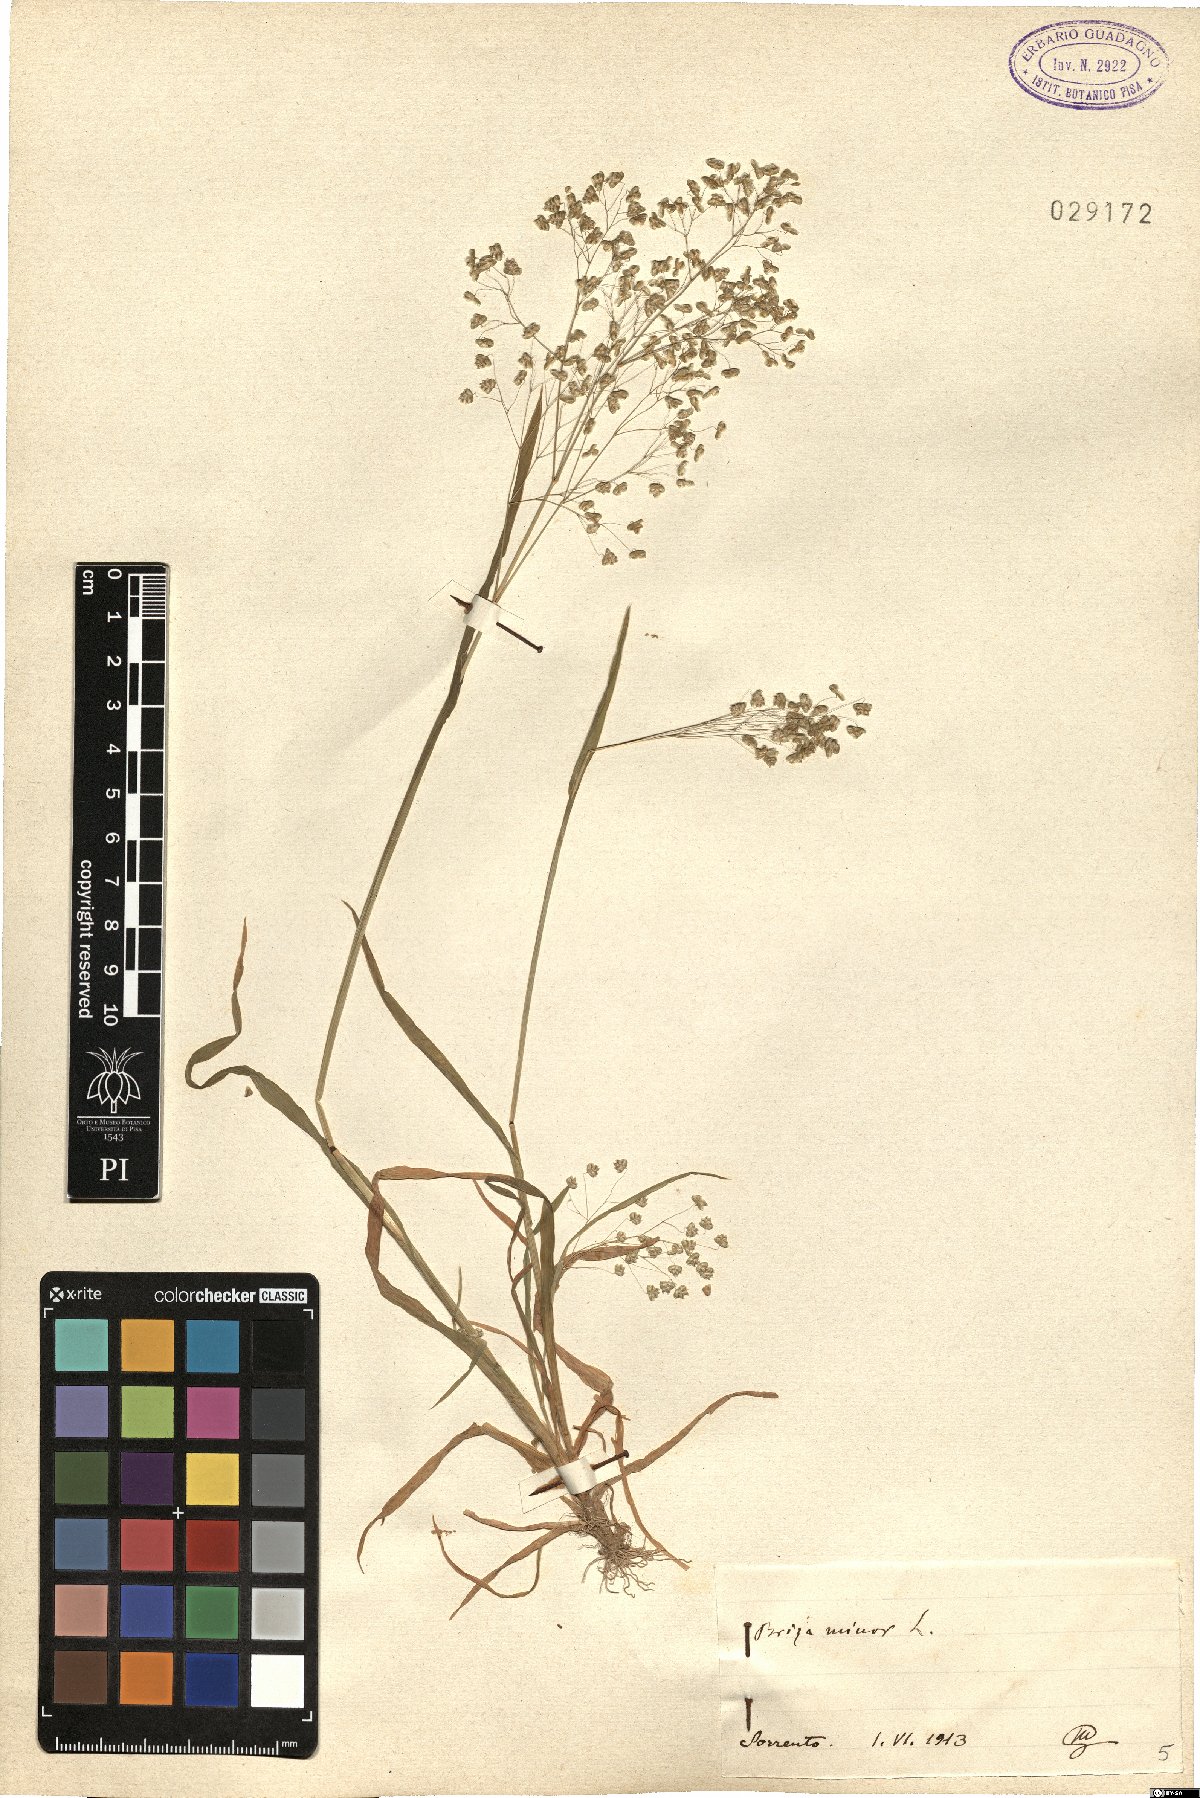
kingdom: Plantae
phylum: Tracheophyta
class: Liliopsida
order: Poales
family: Poaceae
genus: Briza
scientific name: Briza minor
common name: Lesser quaking-grass
